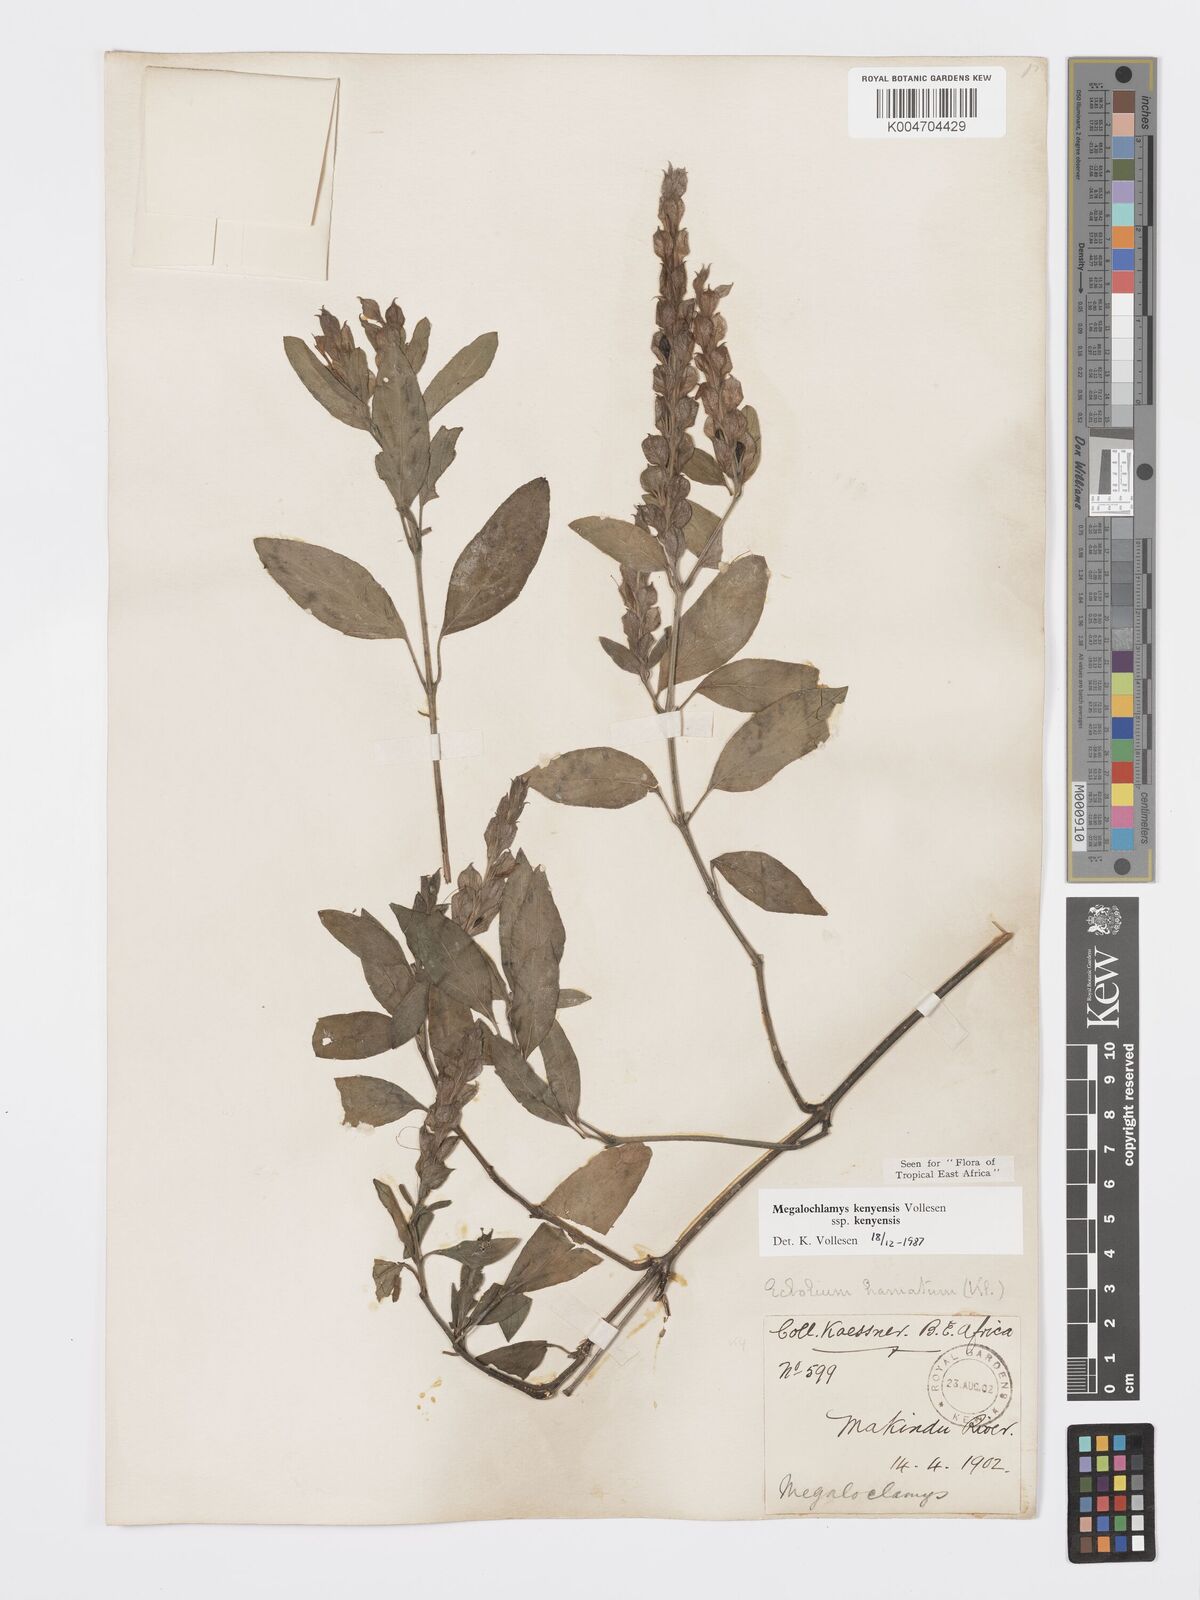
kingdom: Plantae
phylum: Tracheophyta
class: Magnoliopsida
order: Lamiales
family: Acanthaceae
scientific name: Acanthaceae
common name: Acanthaceae
